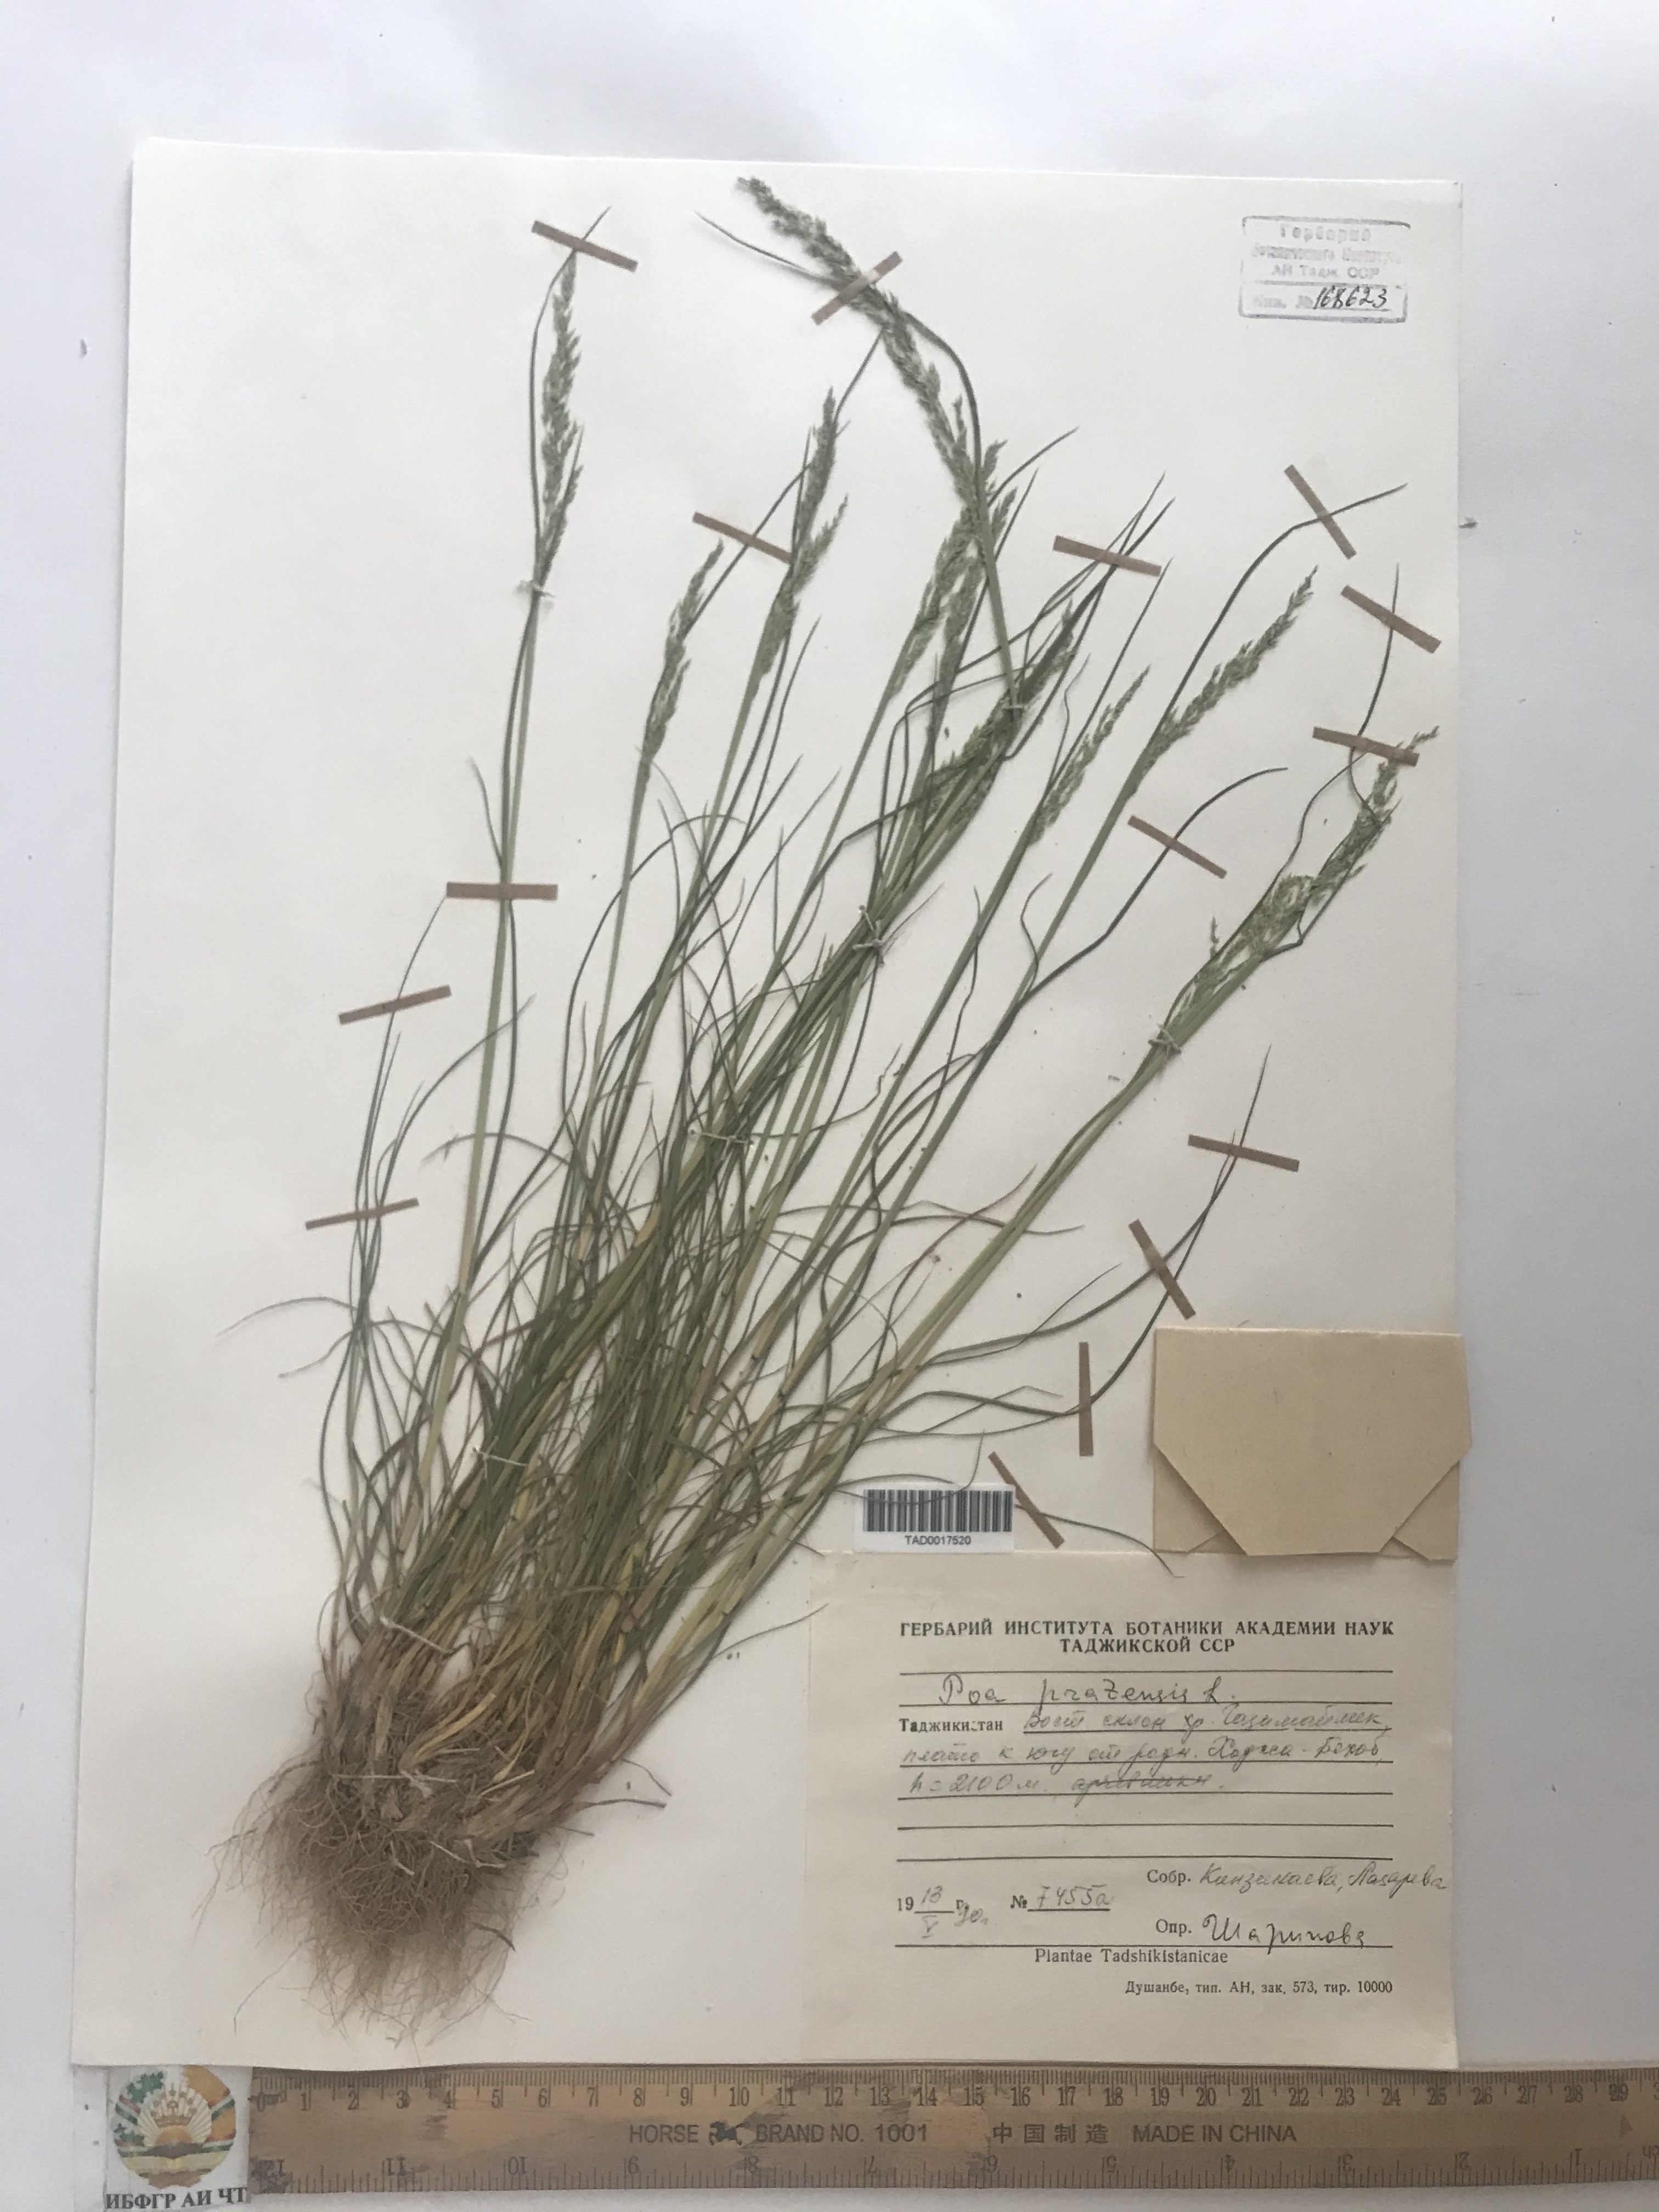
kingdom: Plantae
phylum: Tracheophyta
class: Liliopsida
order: Poales
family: Poaceae
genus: Poa
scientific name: Poa pratensis
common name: Kentucky bluegrass
